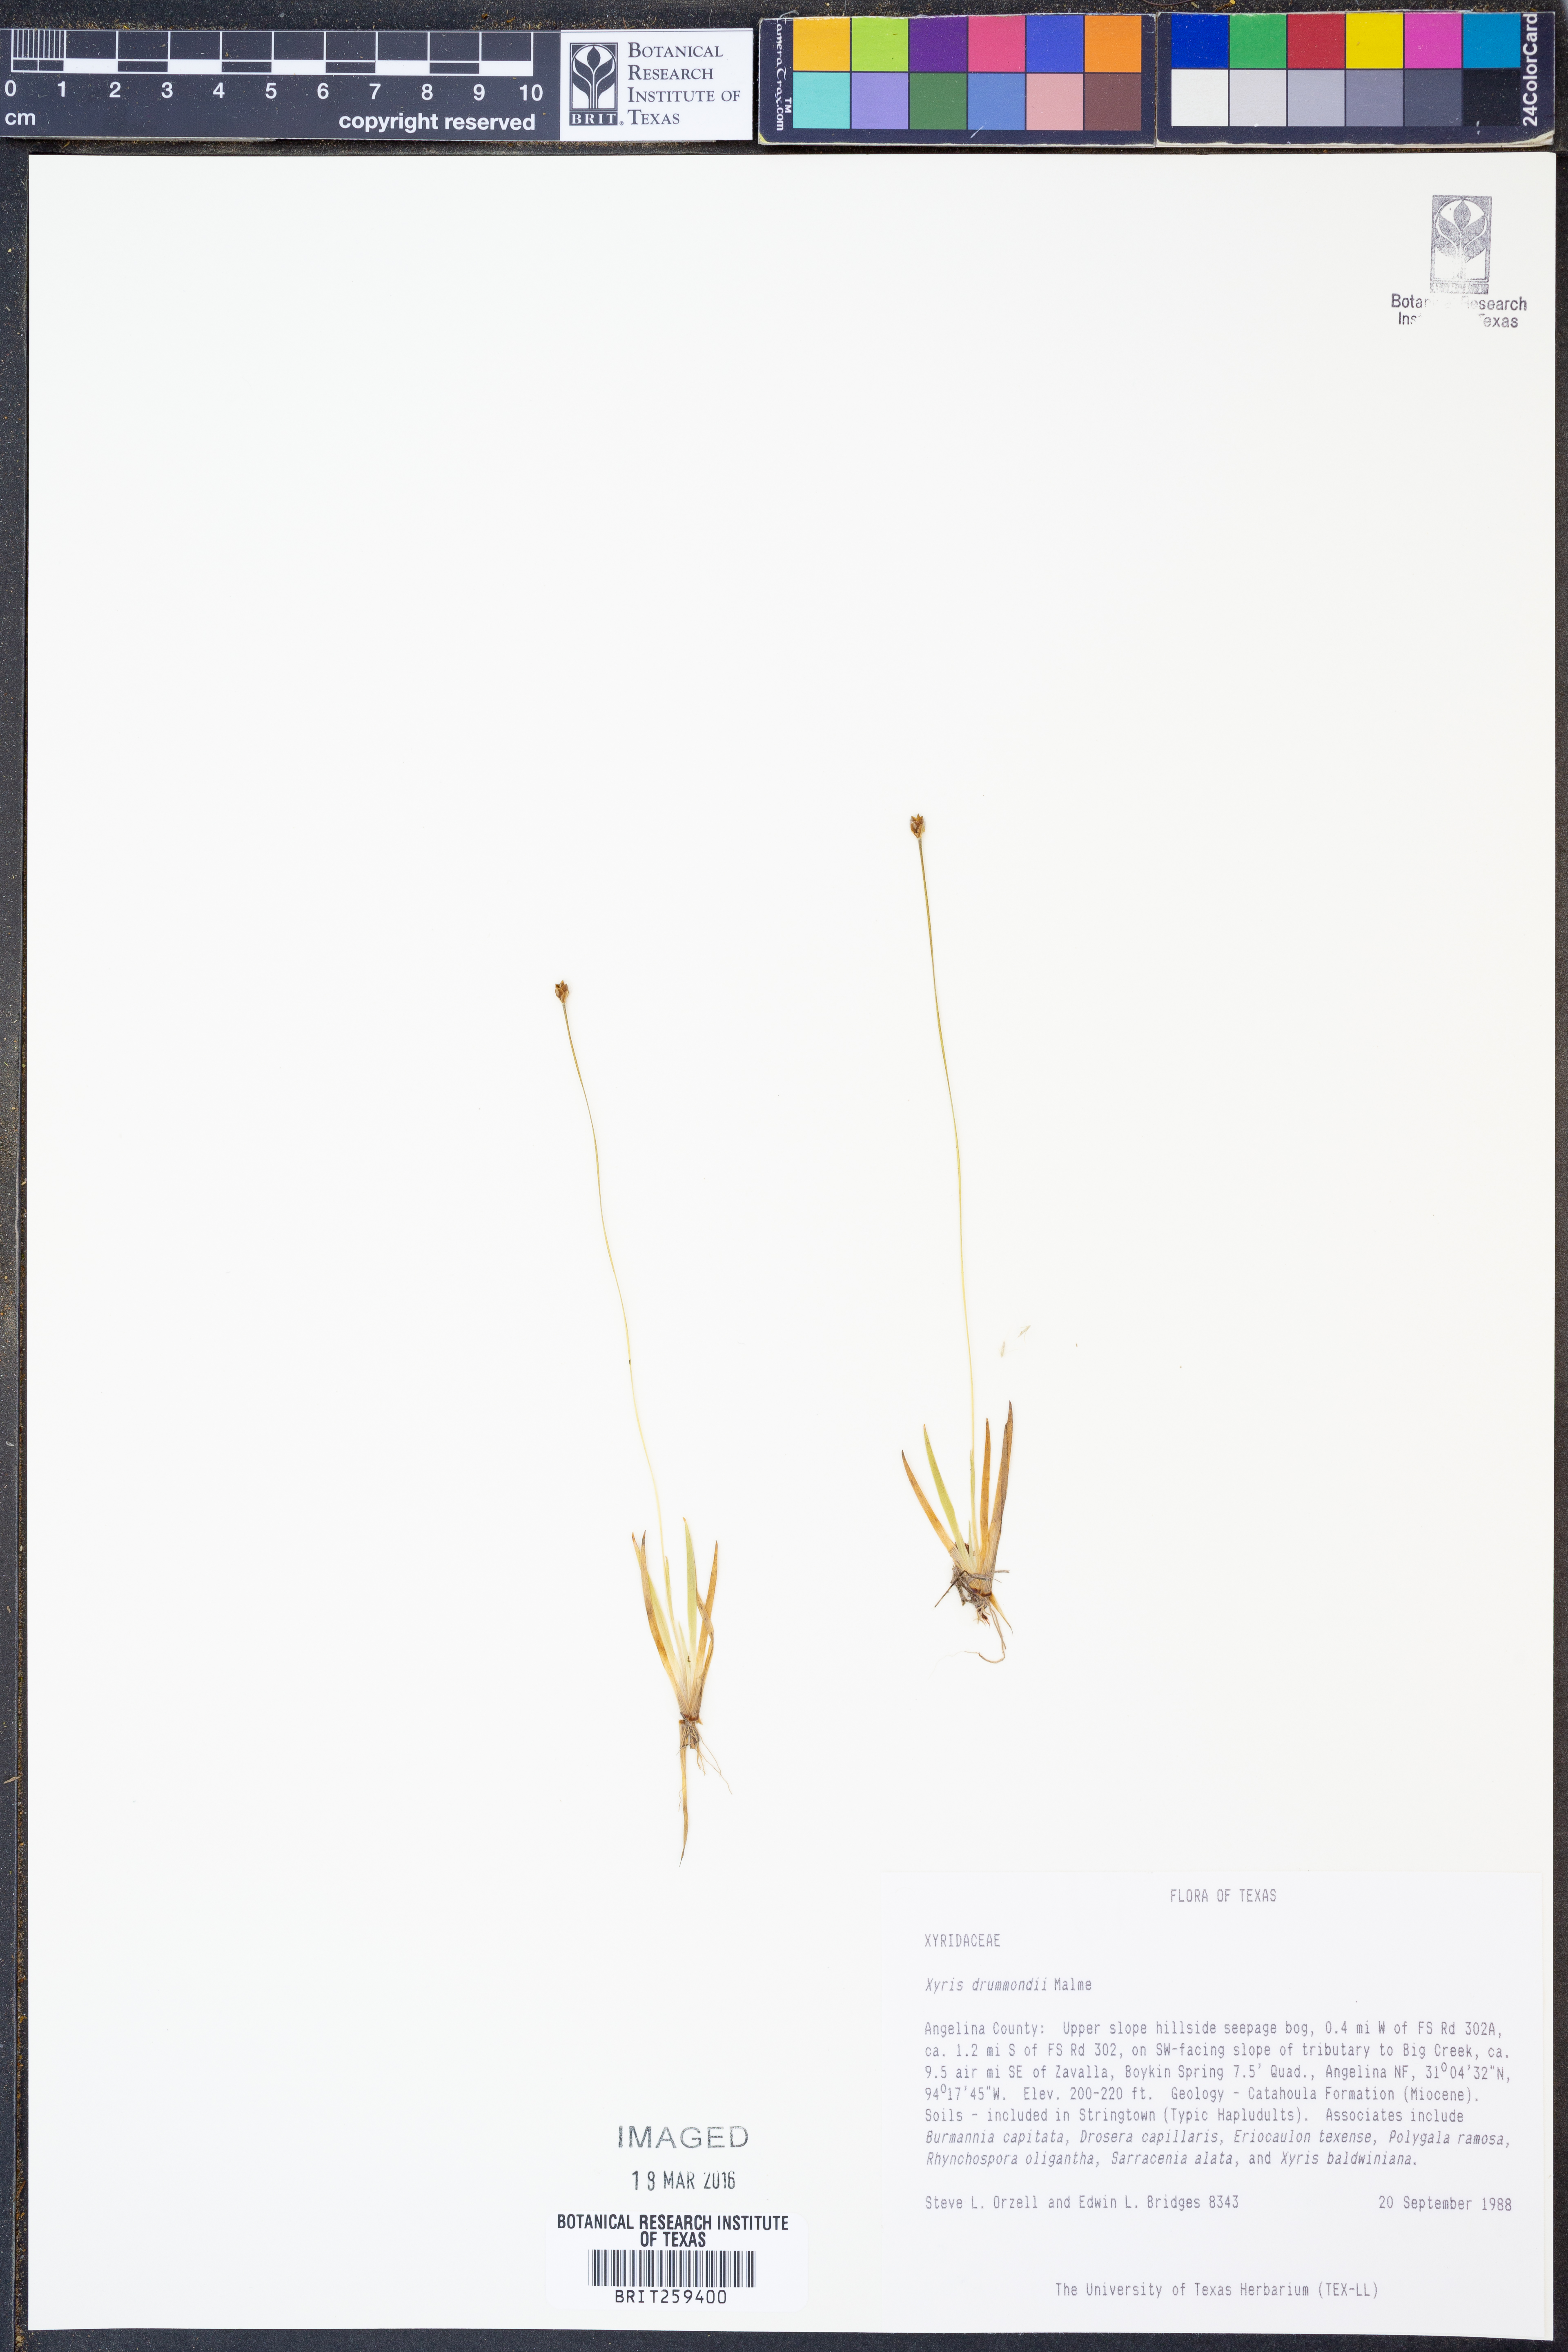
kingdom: Plantae
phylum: Tracheophyta
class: Liliopsida
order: Poales
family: Xyridaceae
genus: Xyris
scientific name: Xyris drummondii
